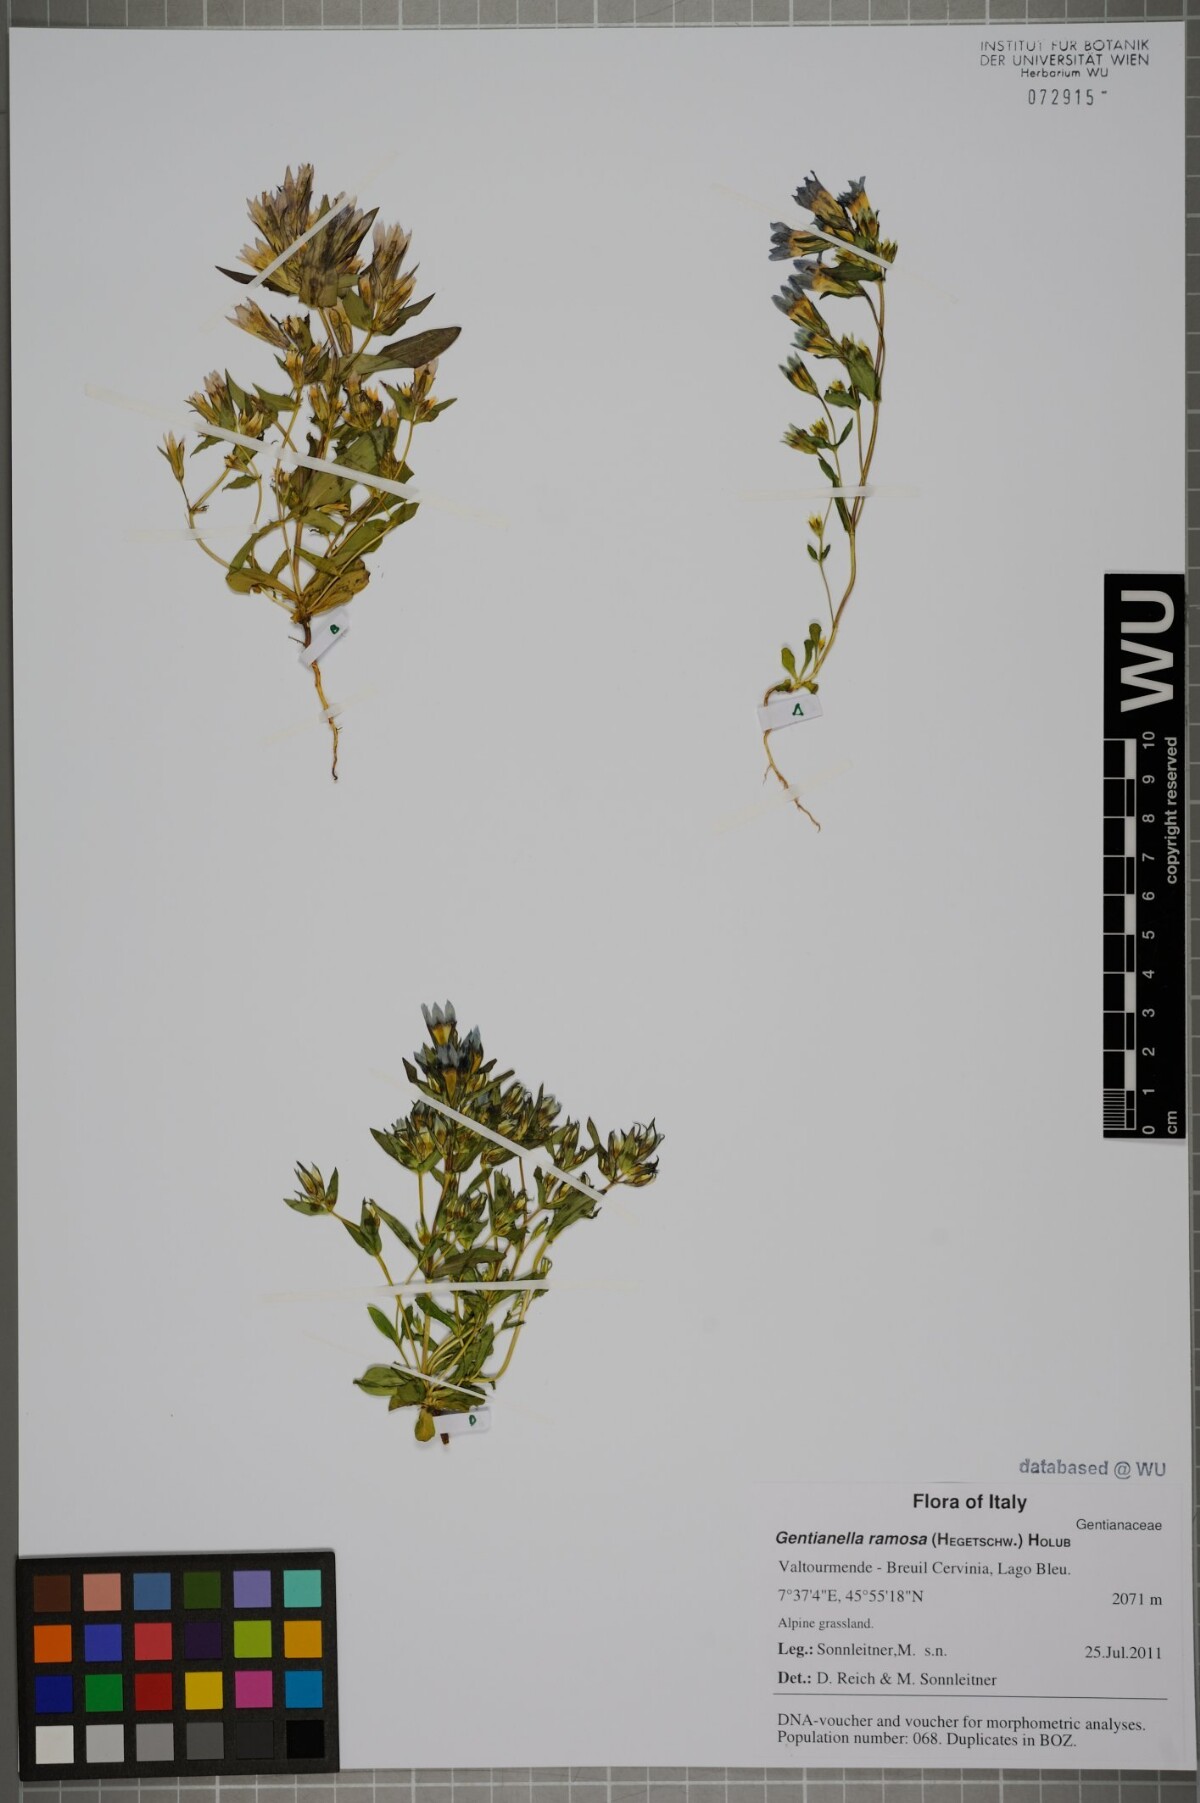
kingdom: Plantae
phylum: Tracheophyta
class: Magnoliopsida
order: Gentianales
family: Gentianaceae
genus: Gentianella
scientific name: Gentianella ramosa
